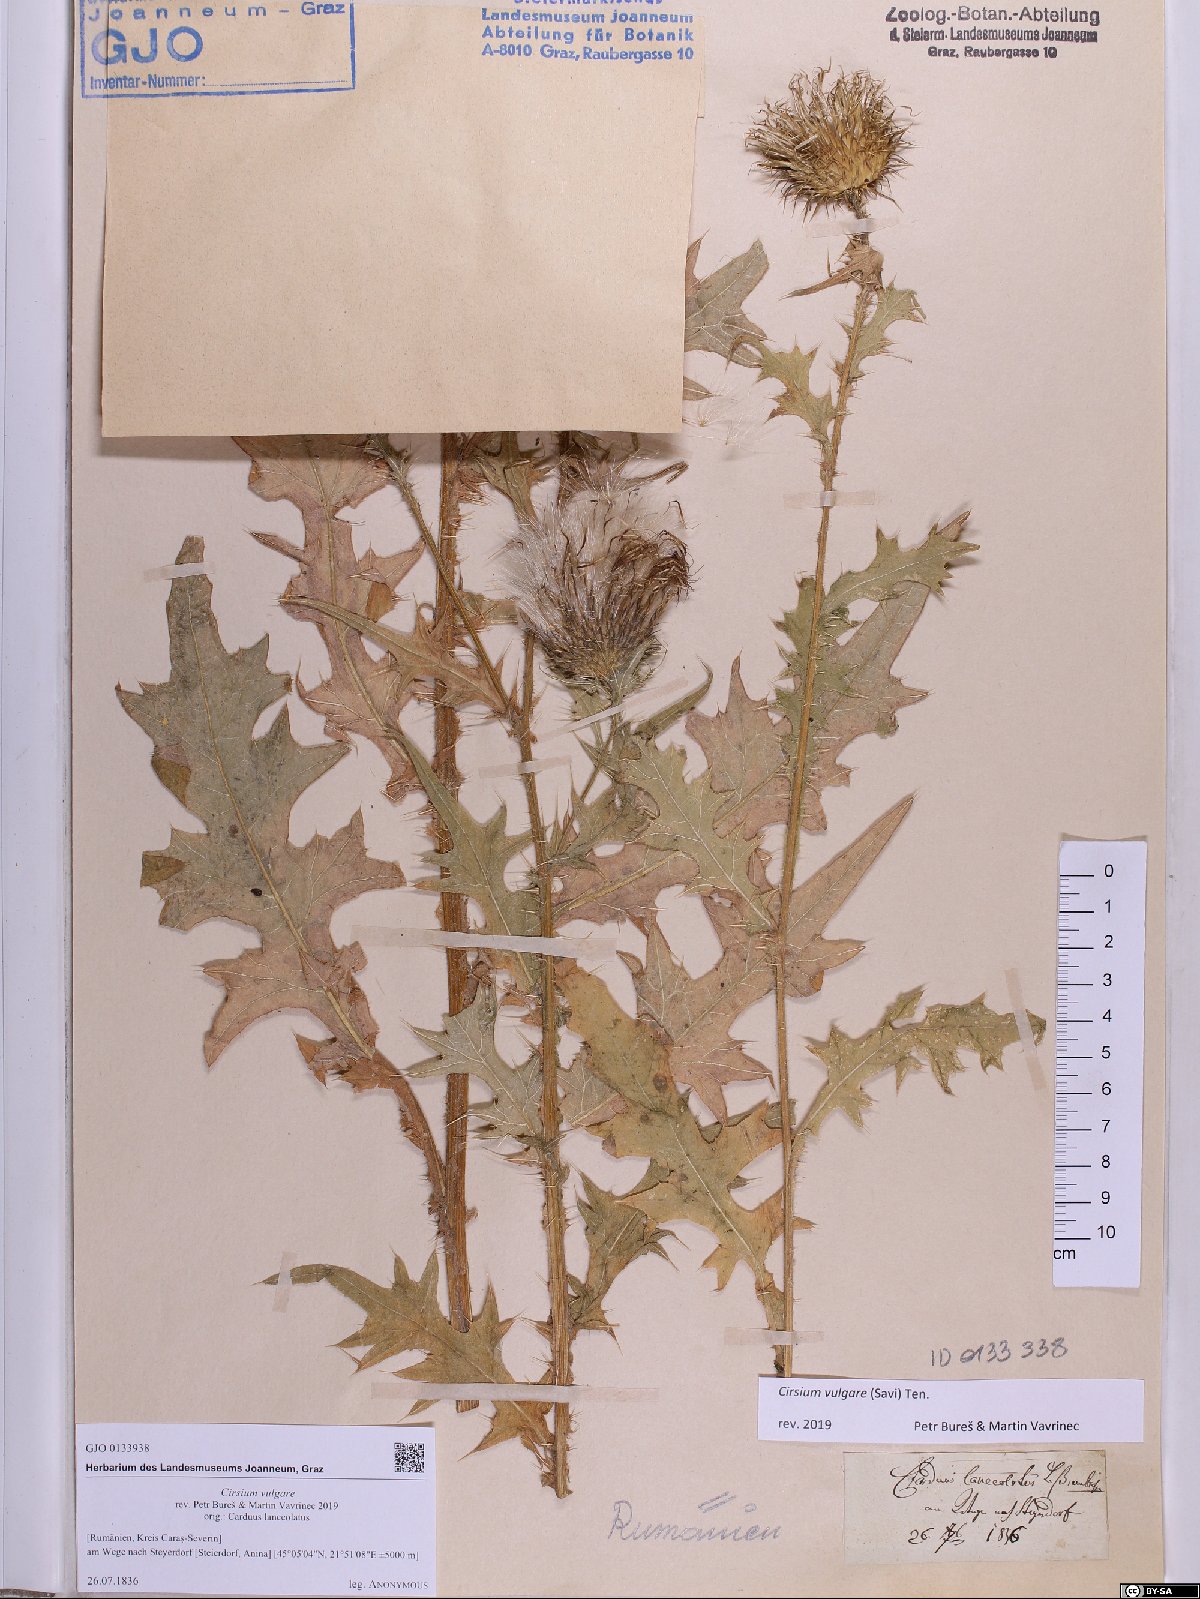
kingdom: Plantae
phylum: Tracheophyta
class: Magnoliopsida
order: Asterales
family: Asteraceae
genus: Cirsium
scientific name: Cirsium vulgare
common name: Bull thistle
